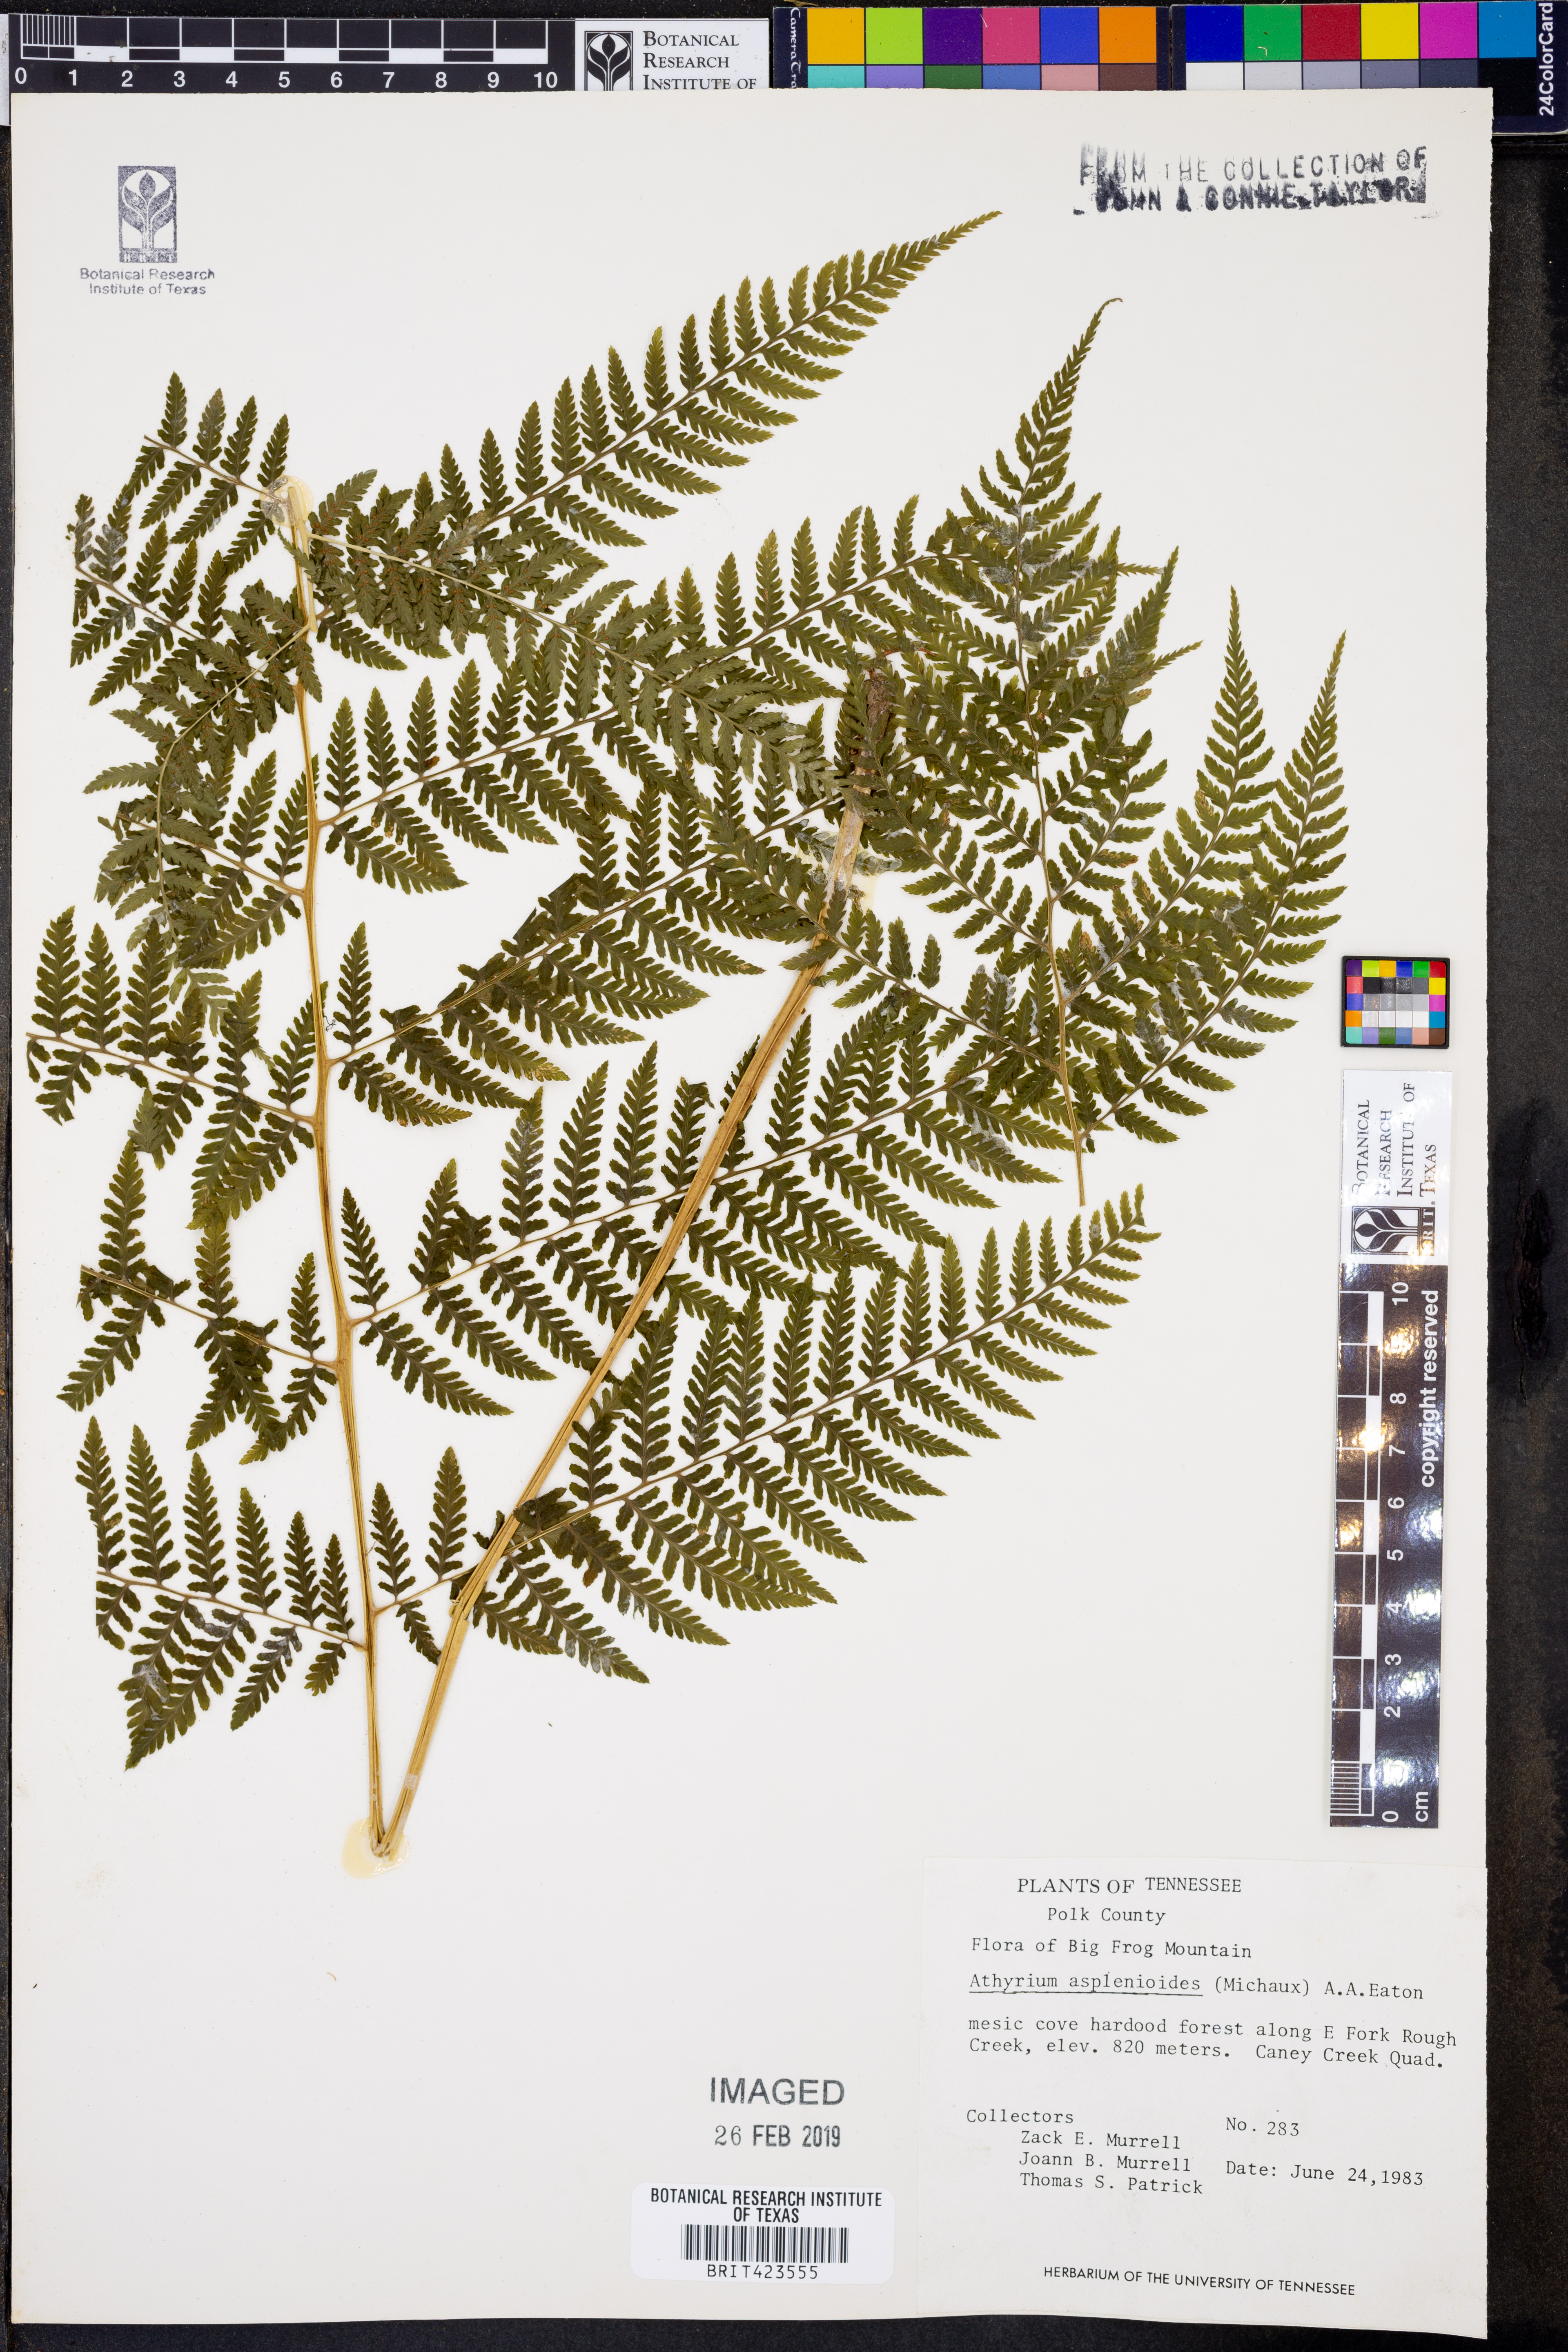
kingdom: Plantae
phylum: Tracheophyta
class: Polypodiopsida
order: Polypodiales
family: Athyriaceae
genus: Athyrium
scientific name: Athyrium asplenioides
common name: Southern lady fern
